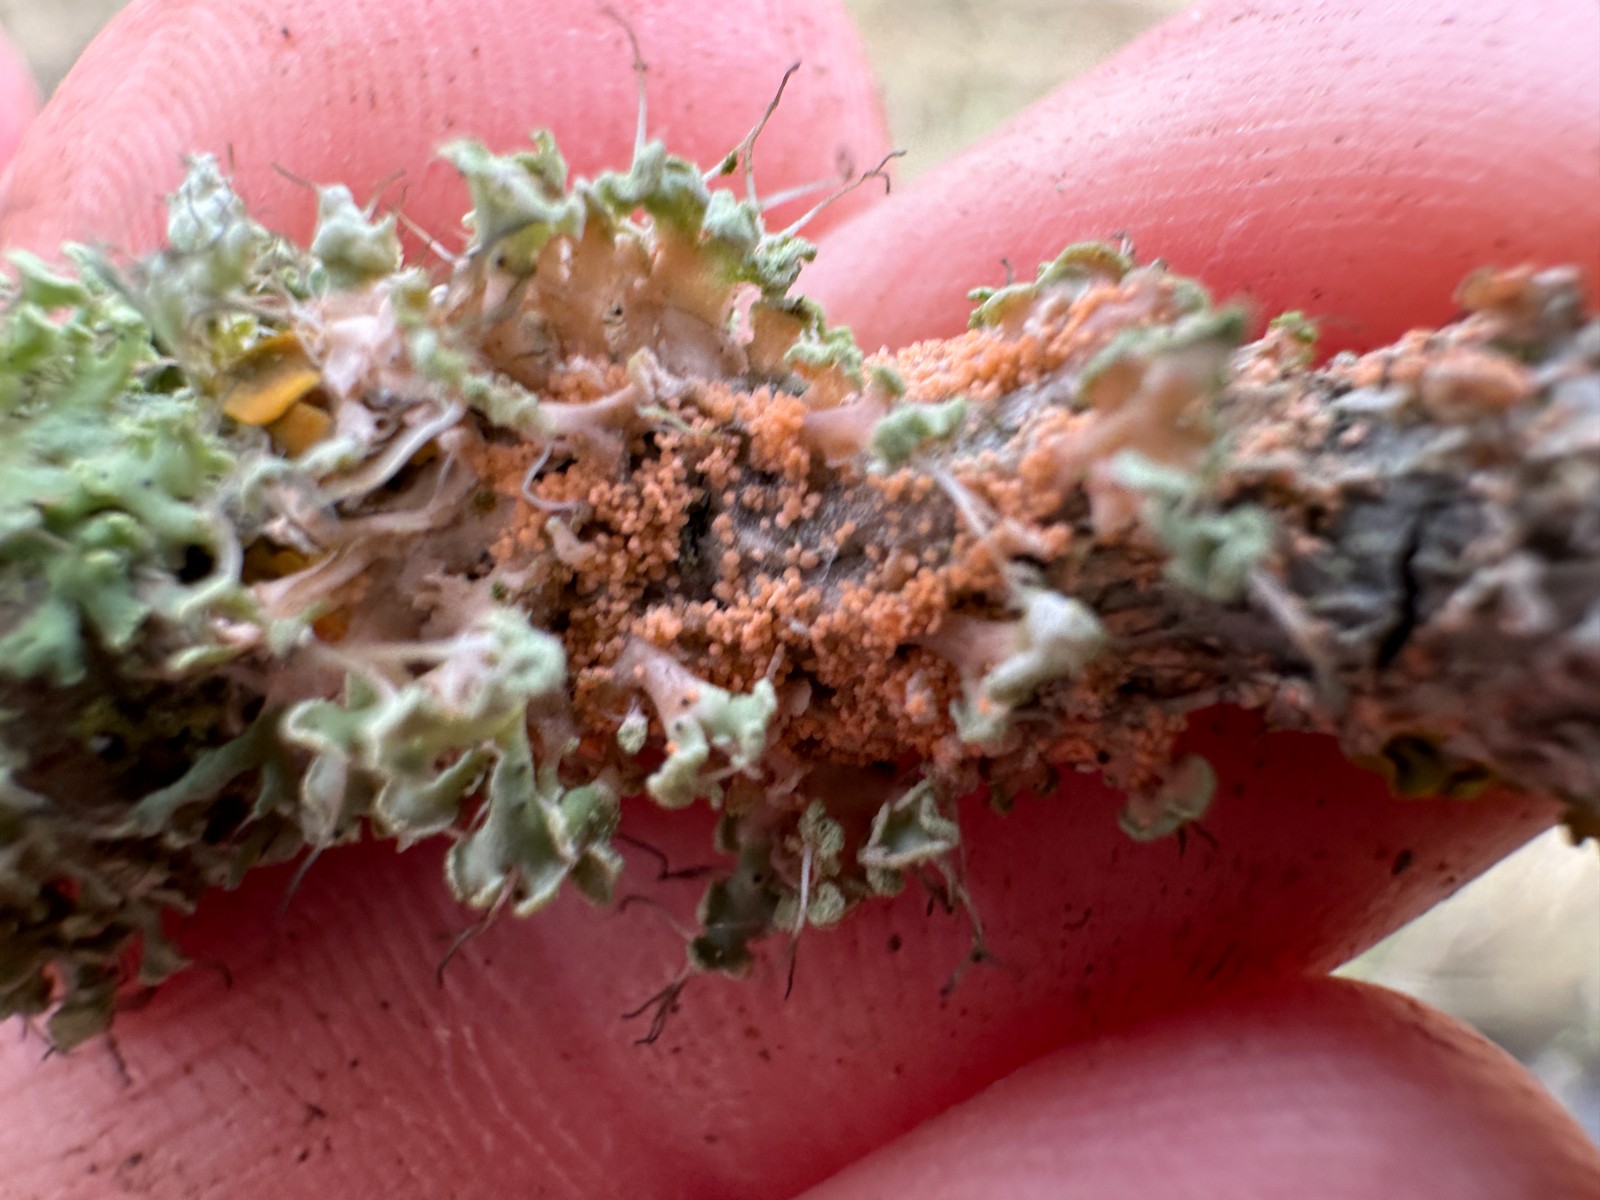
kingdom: Fungi
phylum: Basidiomycota
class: Agaricomycetes
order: Corticiales
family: Corticiaceae
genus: Erythricium
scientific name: Erythricium aurantiacum
